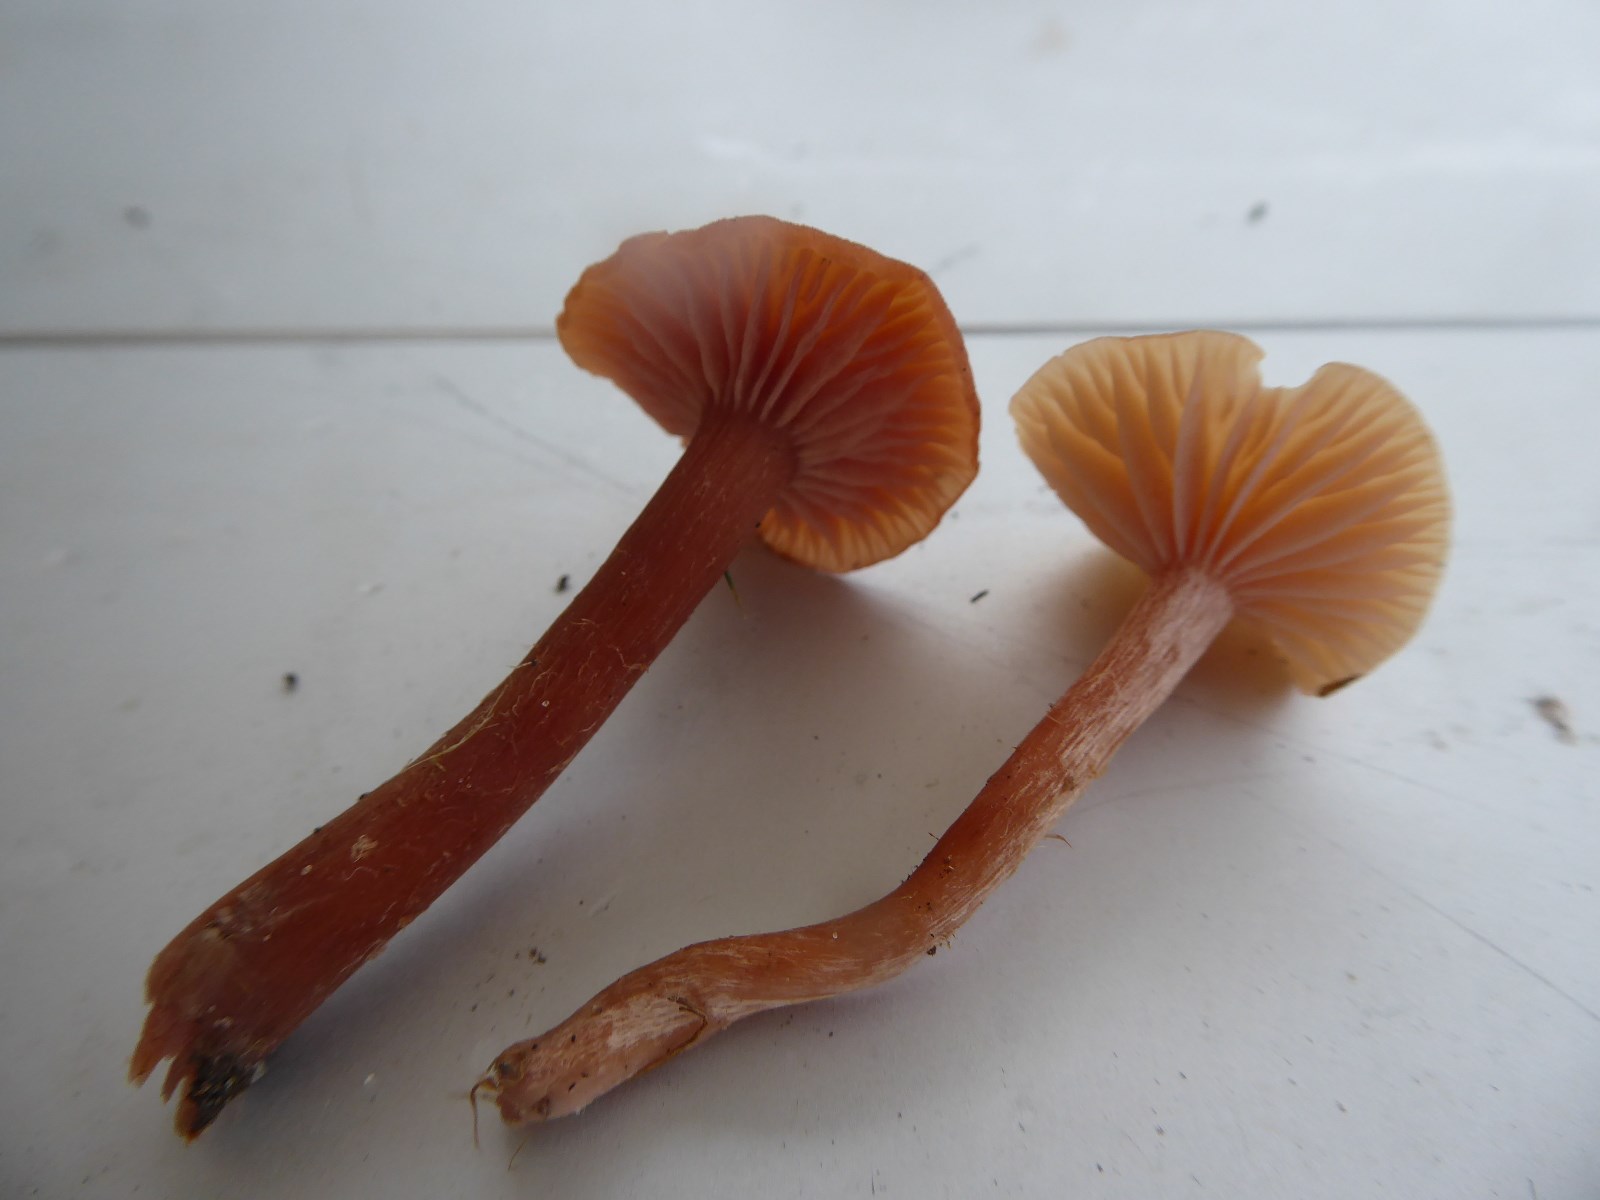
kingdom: Fungi
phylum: Basidiomycota
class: Agaricomycetes
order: Agaricales
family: Hydnangiaceae
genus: Laccaria
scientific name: Laccaria laccata
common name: rød ametysthat
